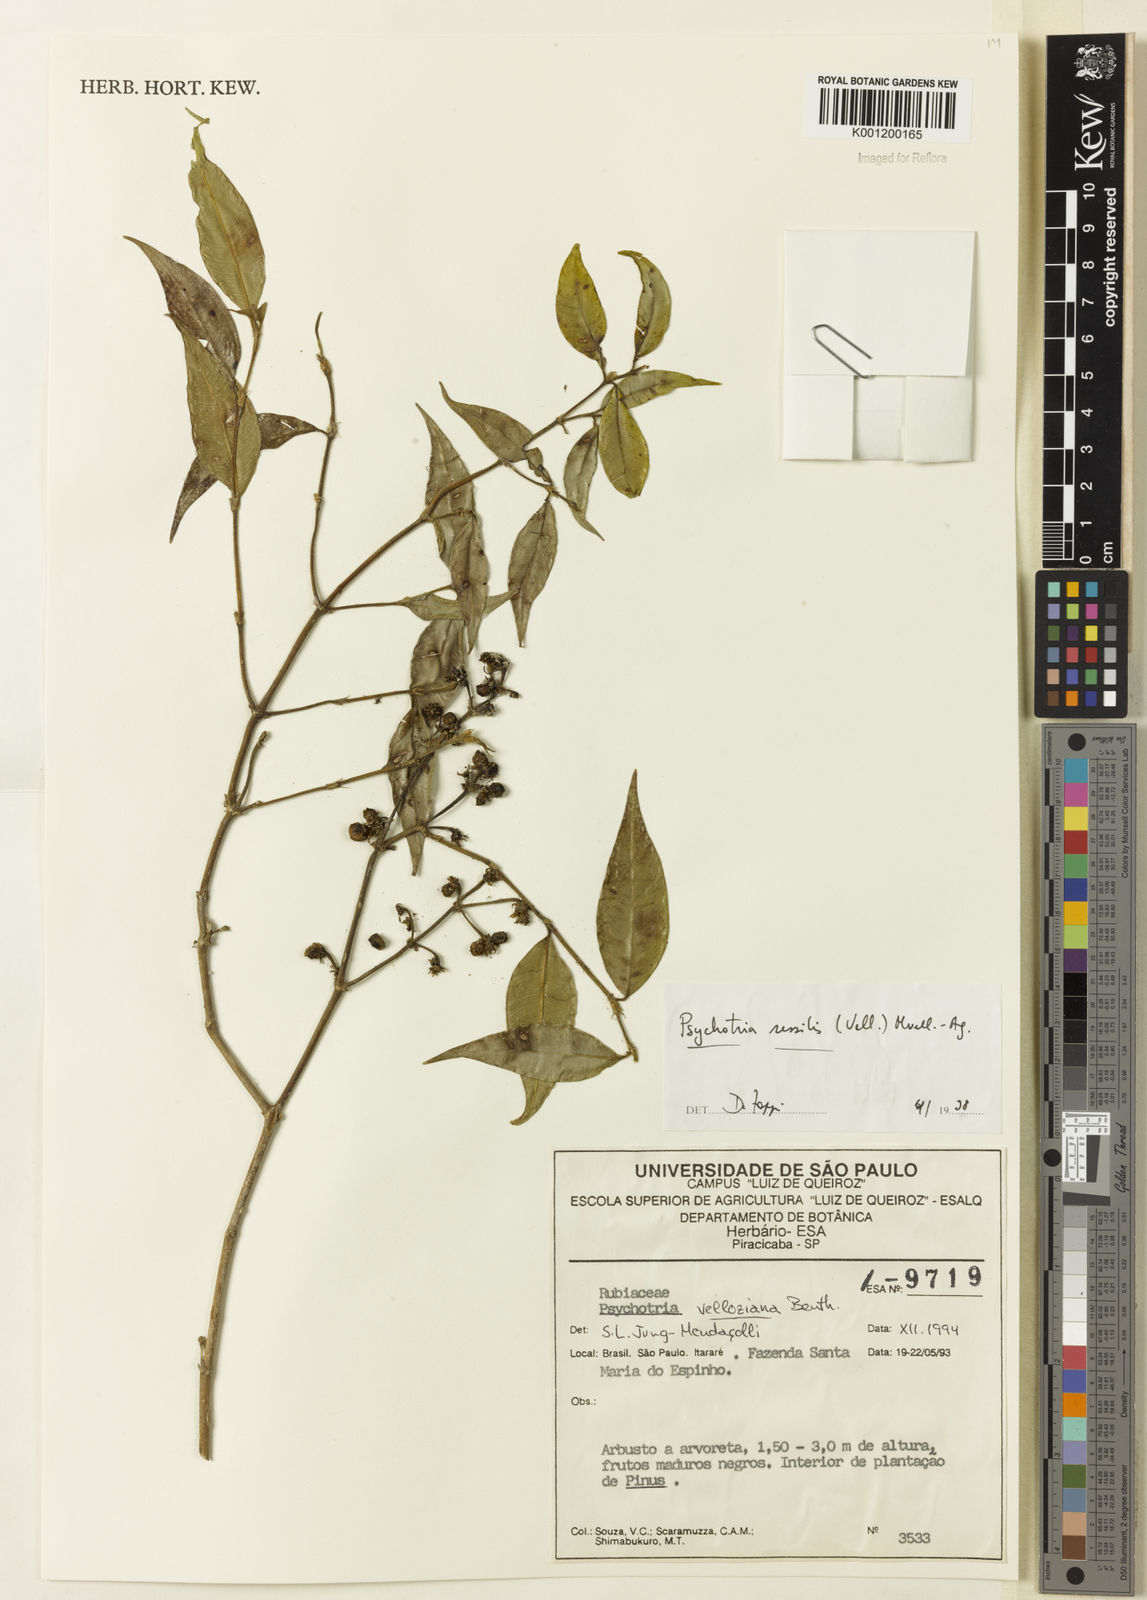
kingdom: Plantae
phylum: Tracheophyta
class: Magnoliopsida
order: Gentianales
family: Rubiaceae
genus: Rudgea
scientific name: Rudgea sessilis
